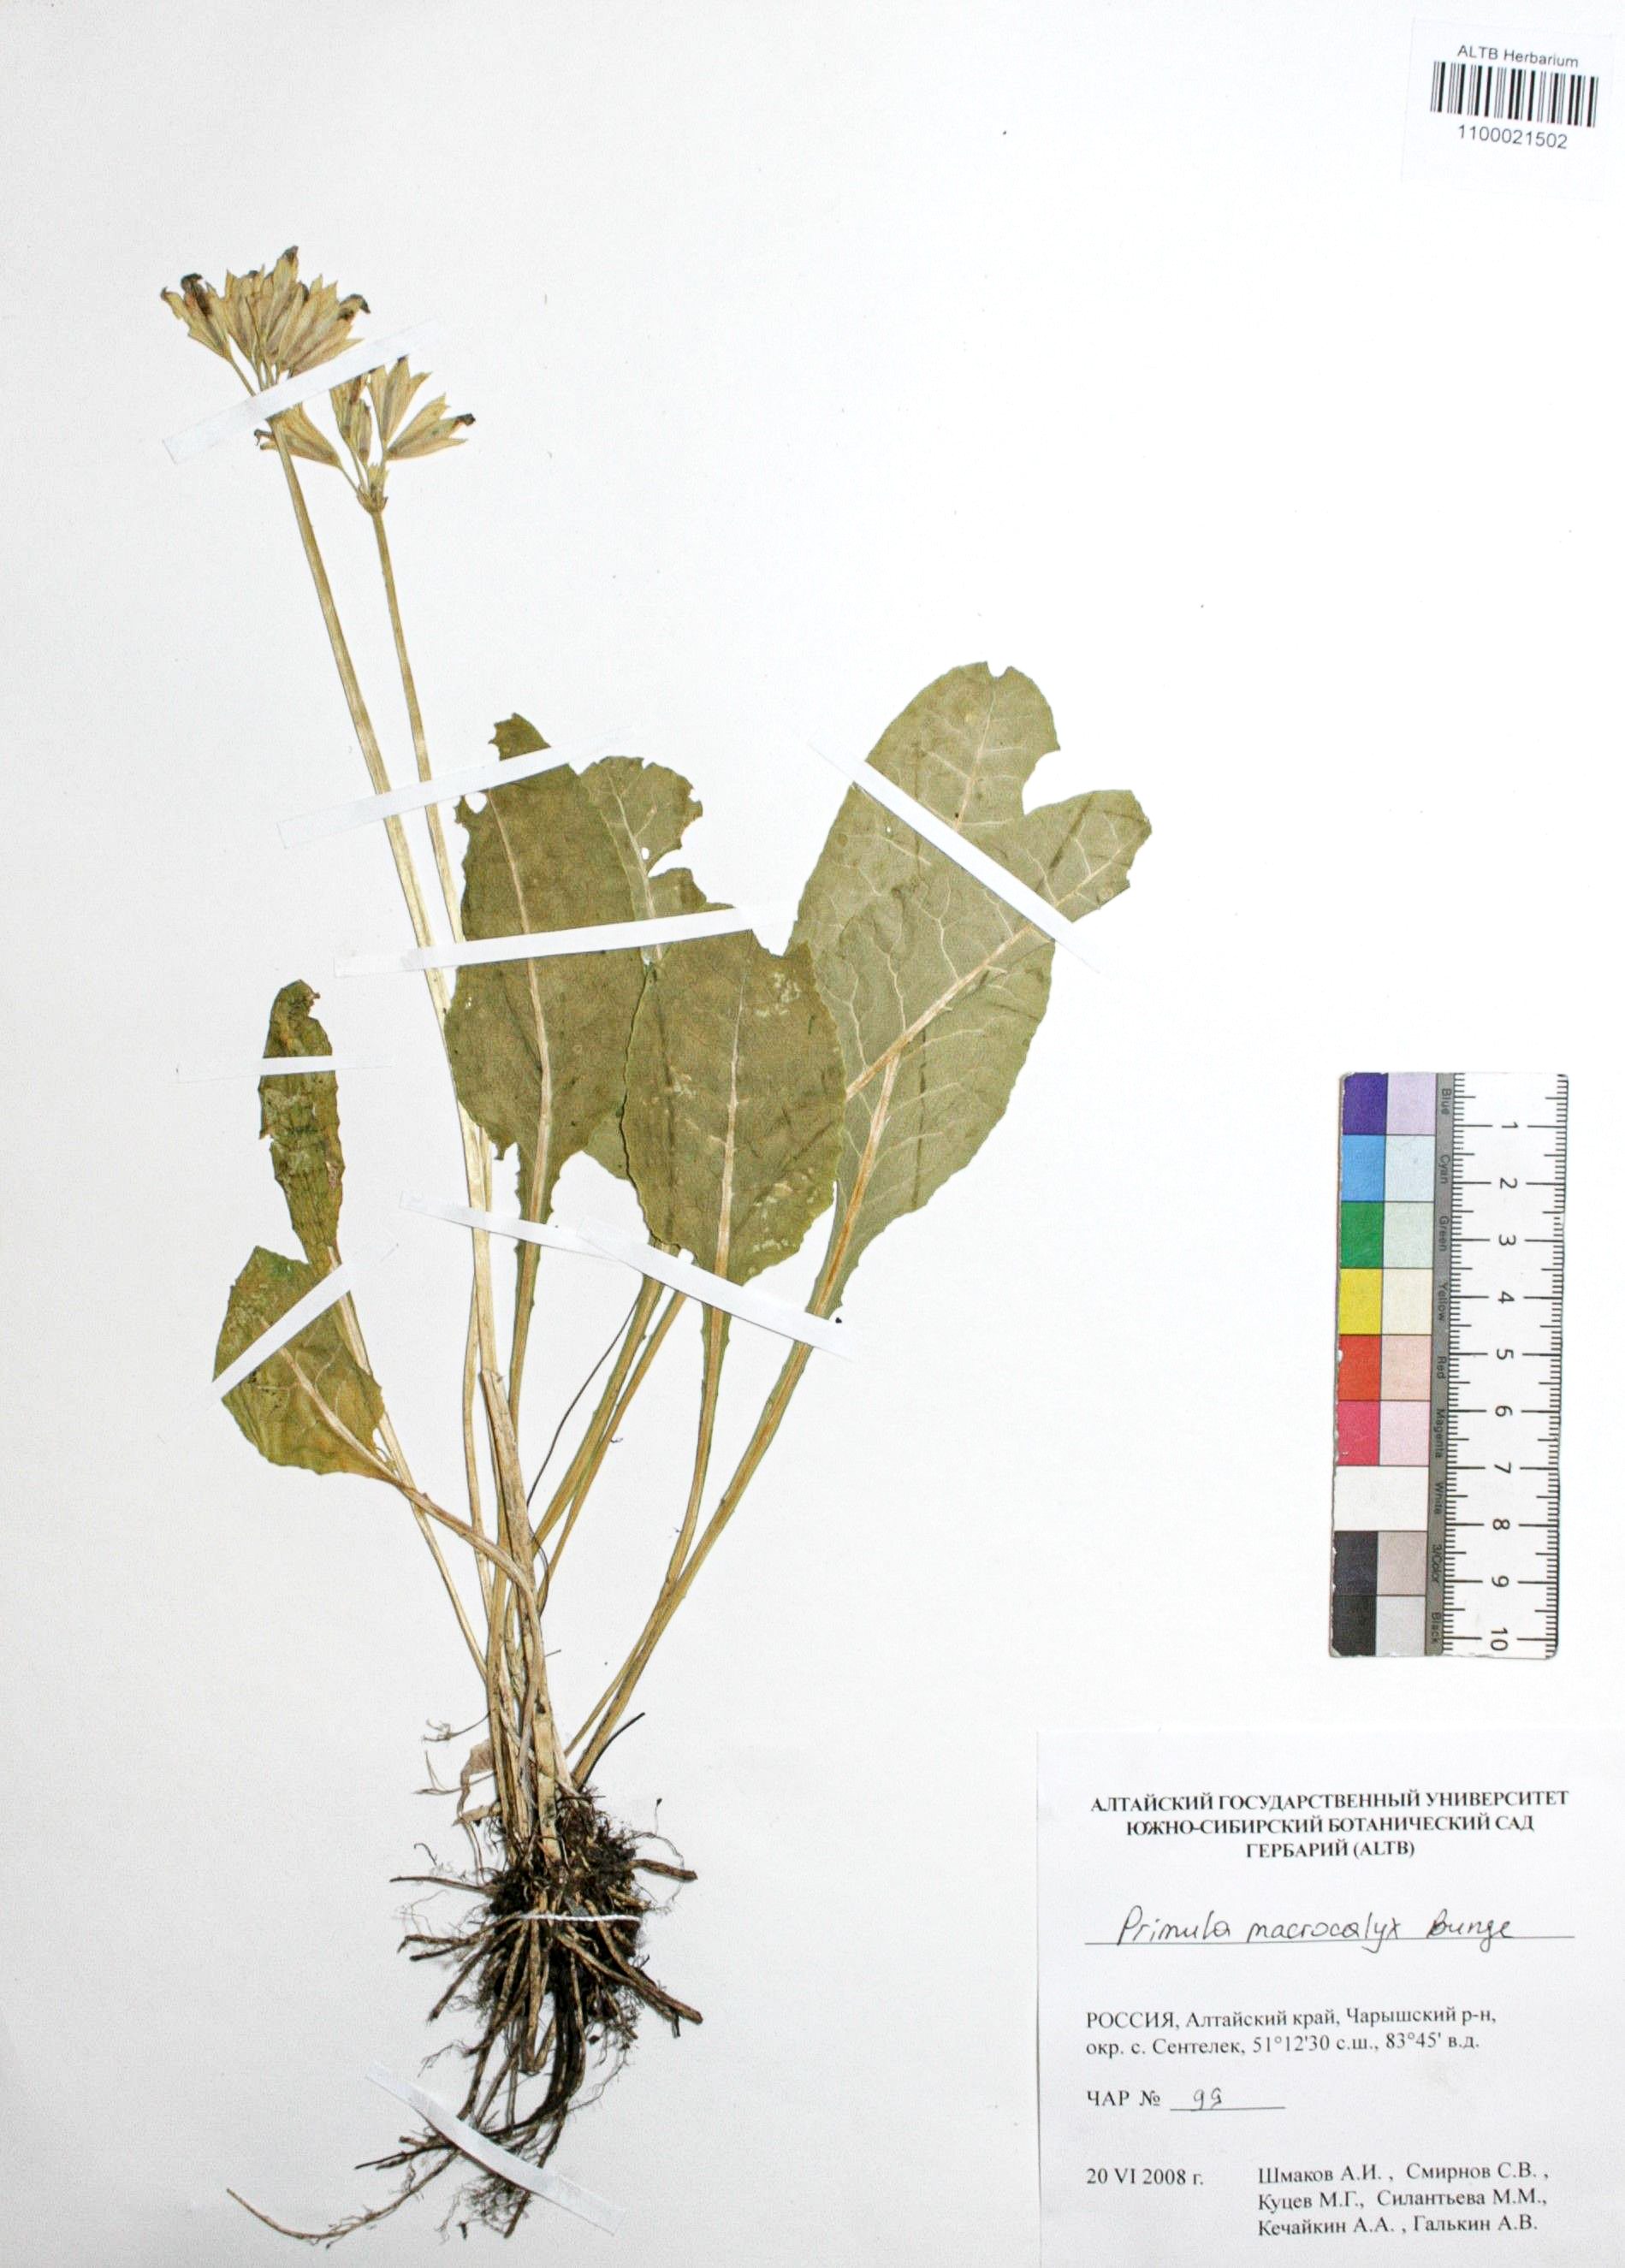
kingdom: Plantae
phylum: Tracheophyta
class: Magnoliopsida
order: Ericales
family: Primulaceae
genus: Primula
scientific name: Primula veris
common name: Cowslip
